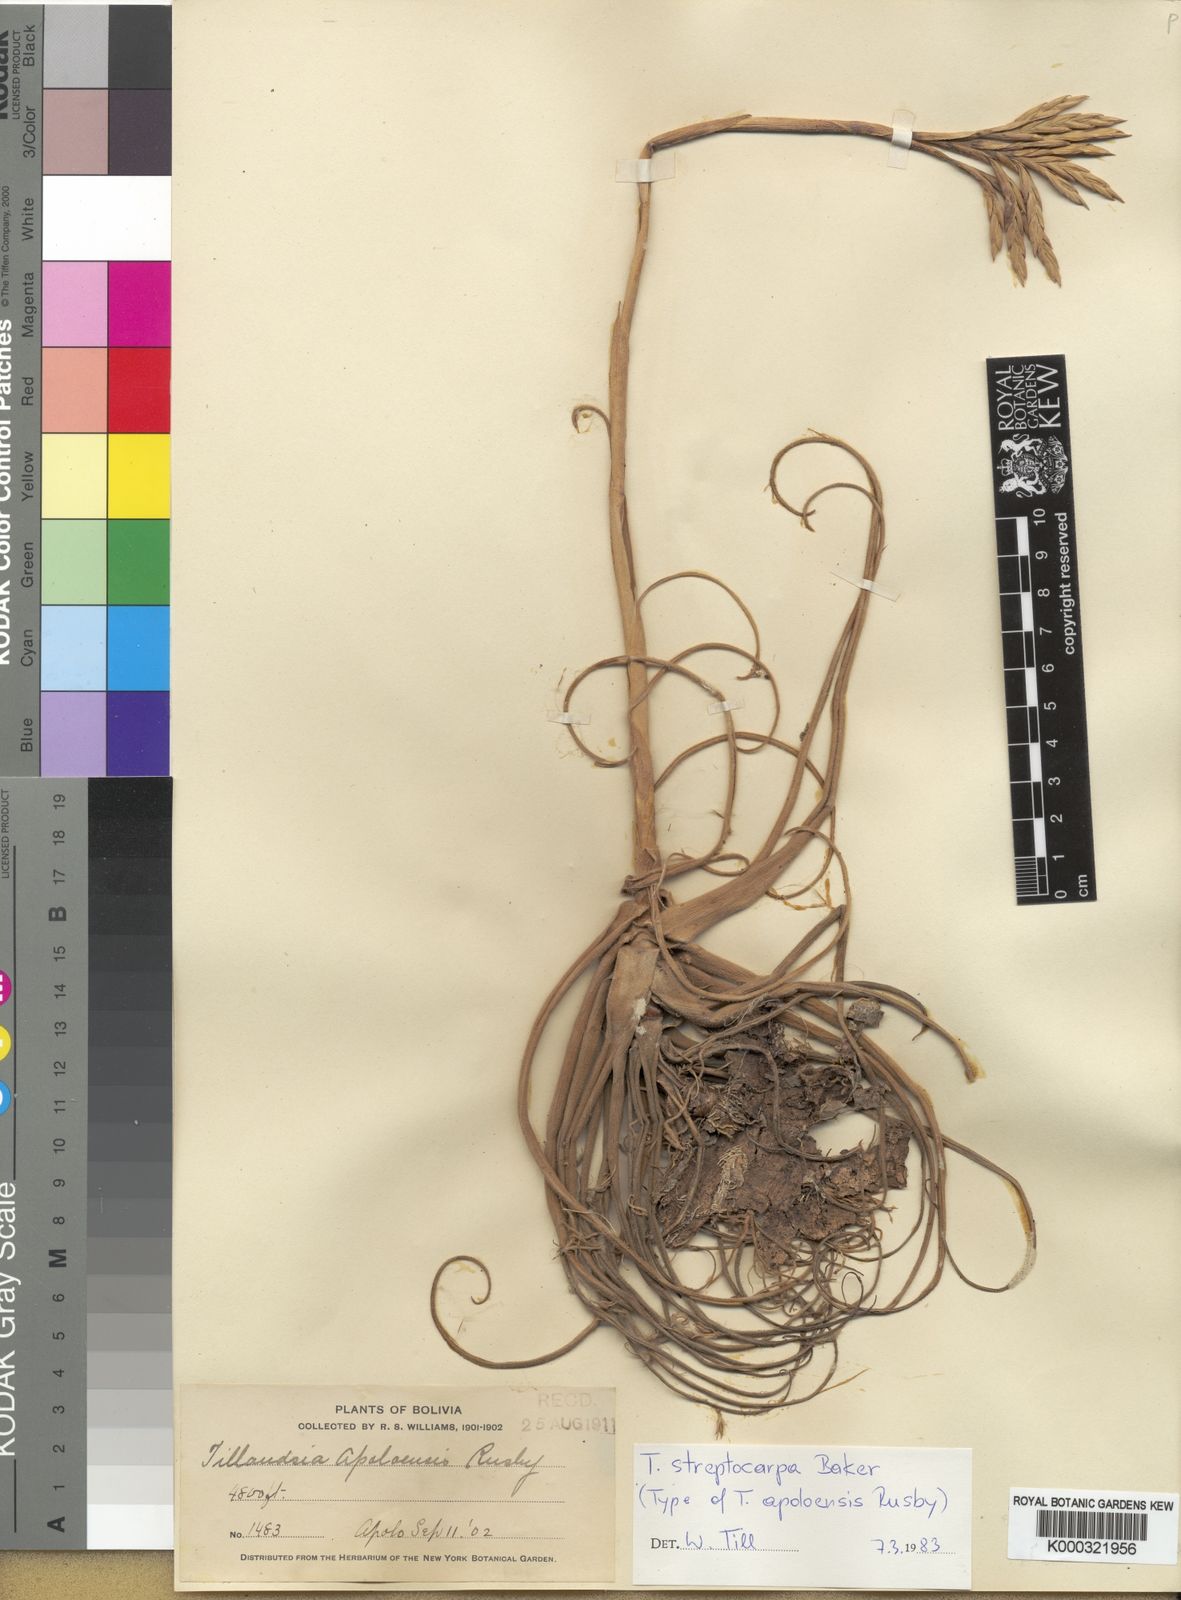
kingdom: Plantae
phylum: Tracheophyta
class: Liliopsida
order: Poales
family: Bromeliaceae
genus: Tillandsia
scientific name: Tillandsia streptocarpa
